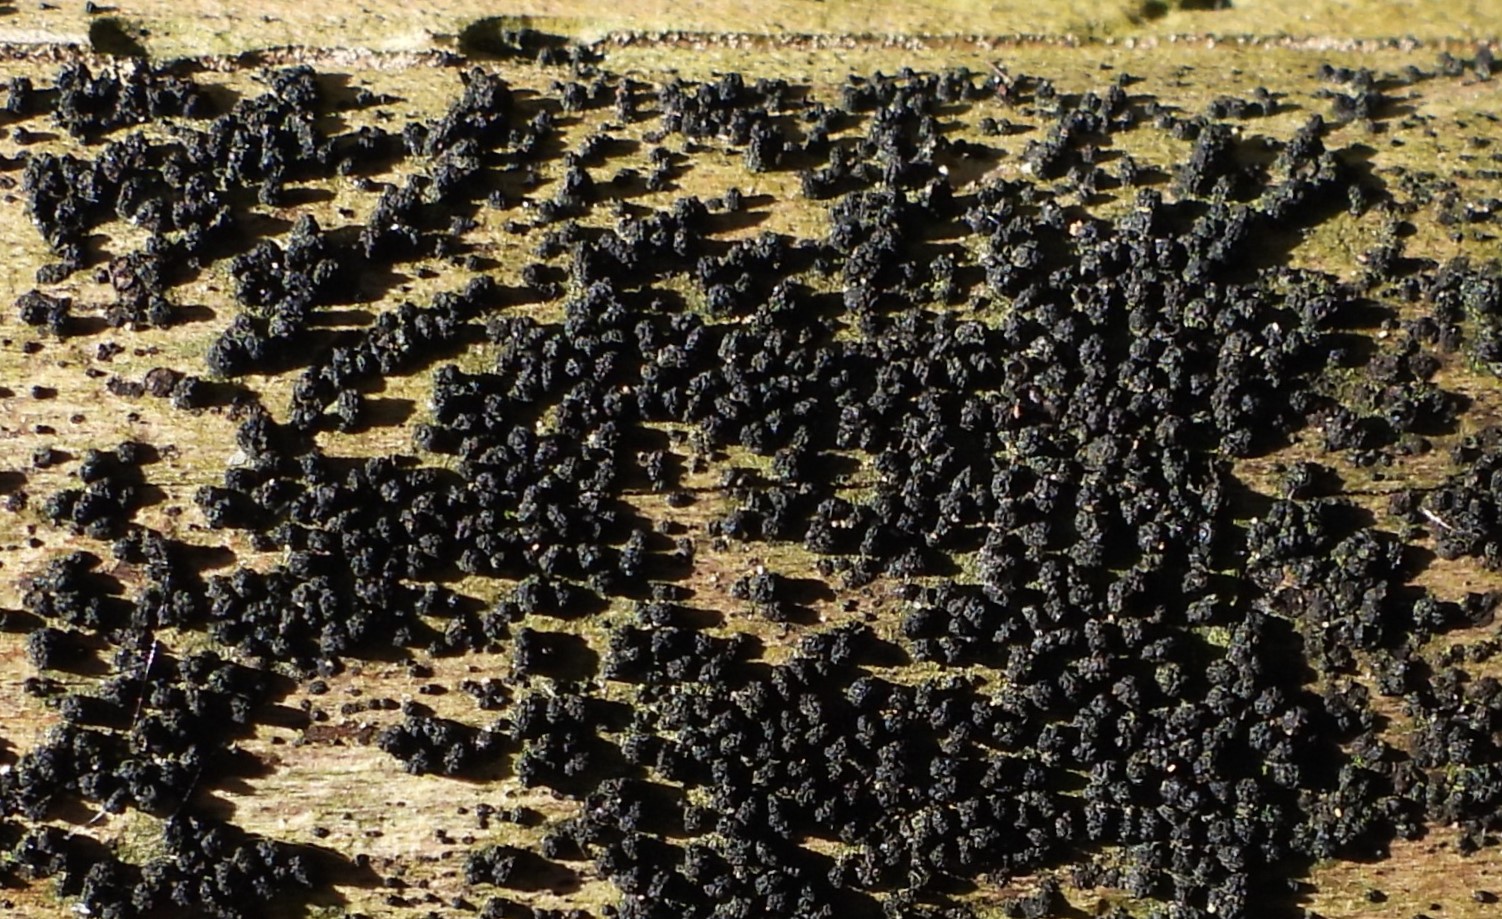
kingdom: Fungi
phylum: Ascomycota
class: Sordariomycetes
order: Coronophorales
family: Bertiaceae
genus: Bertia
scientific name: Bertia moriformis
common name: almindelig morbærkerne
